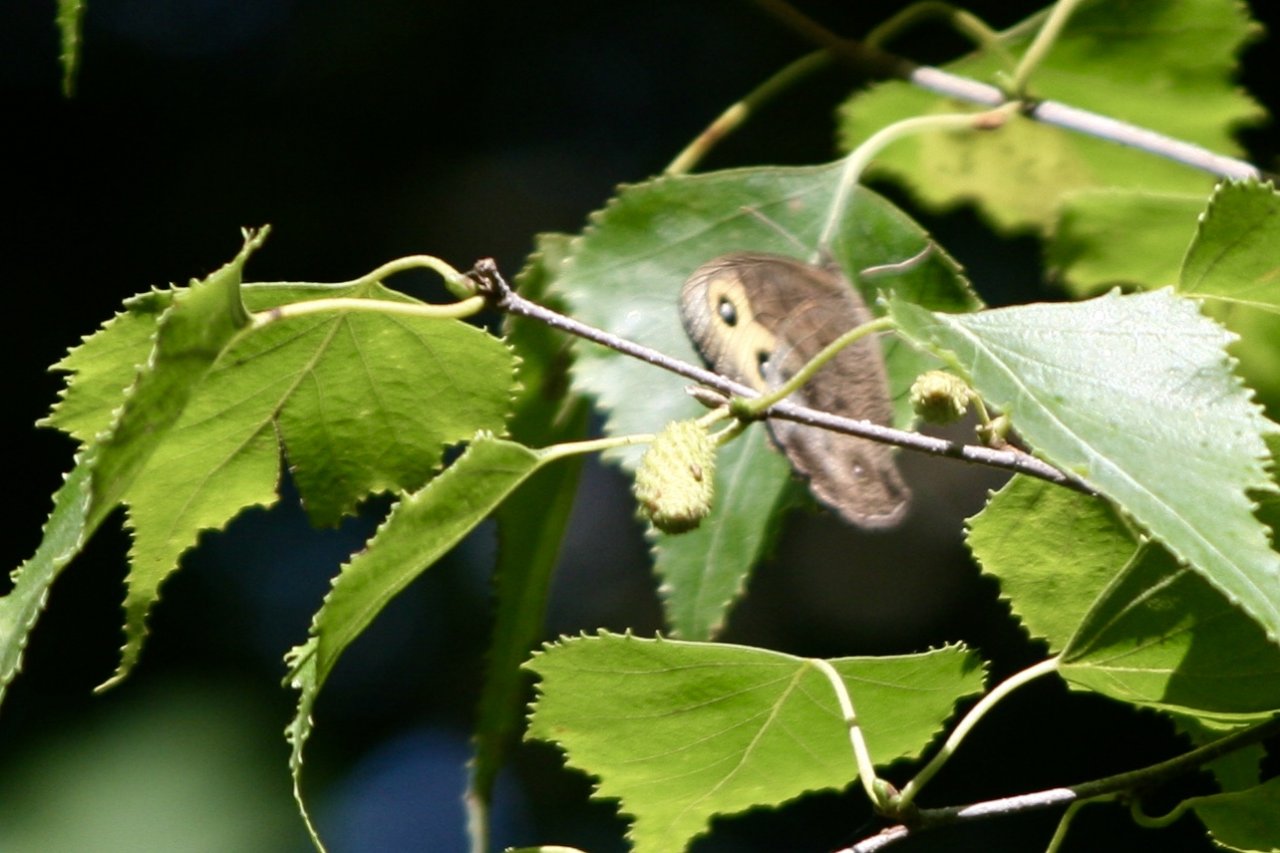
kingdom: Animalia
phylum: Arthropoda
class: Insecta
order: Lepidoptera
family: Nymphalidae
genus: Cercyonis
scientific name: Cercyonis pegala
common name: Common Wood-Nymph
